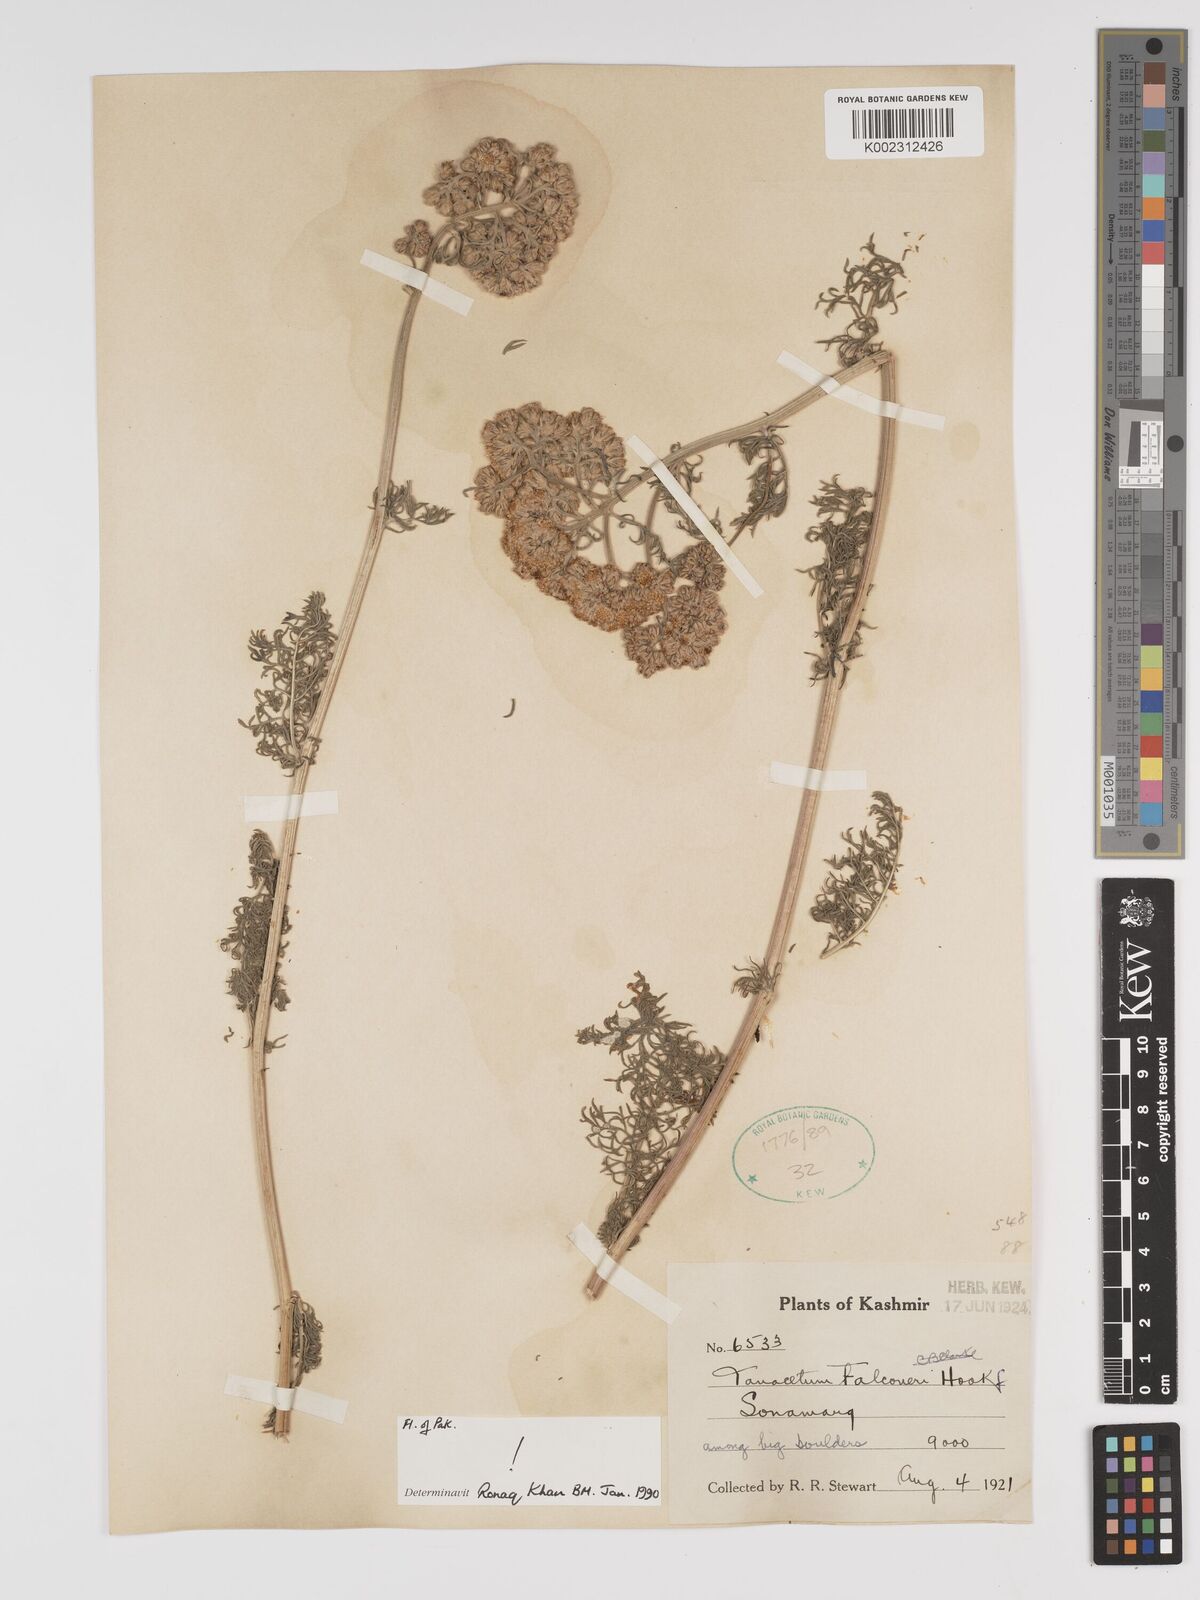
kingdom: Plantae
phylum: Tracheophyta
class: Magnoliopsida
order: Asterales
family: Asteraceae
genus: Tanacetum
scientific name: Tanacetum falconeri
